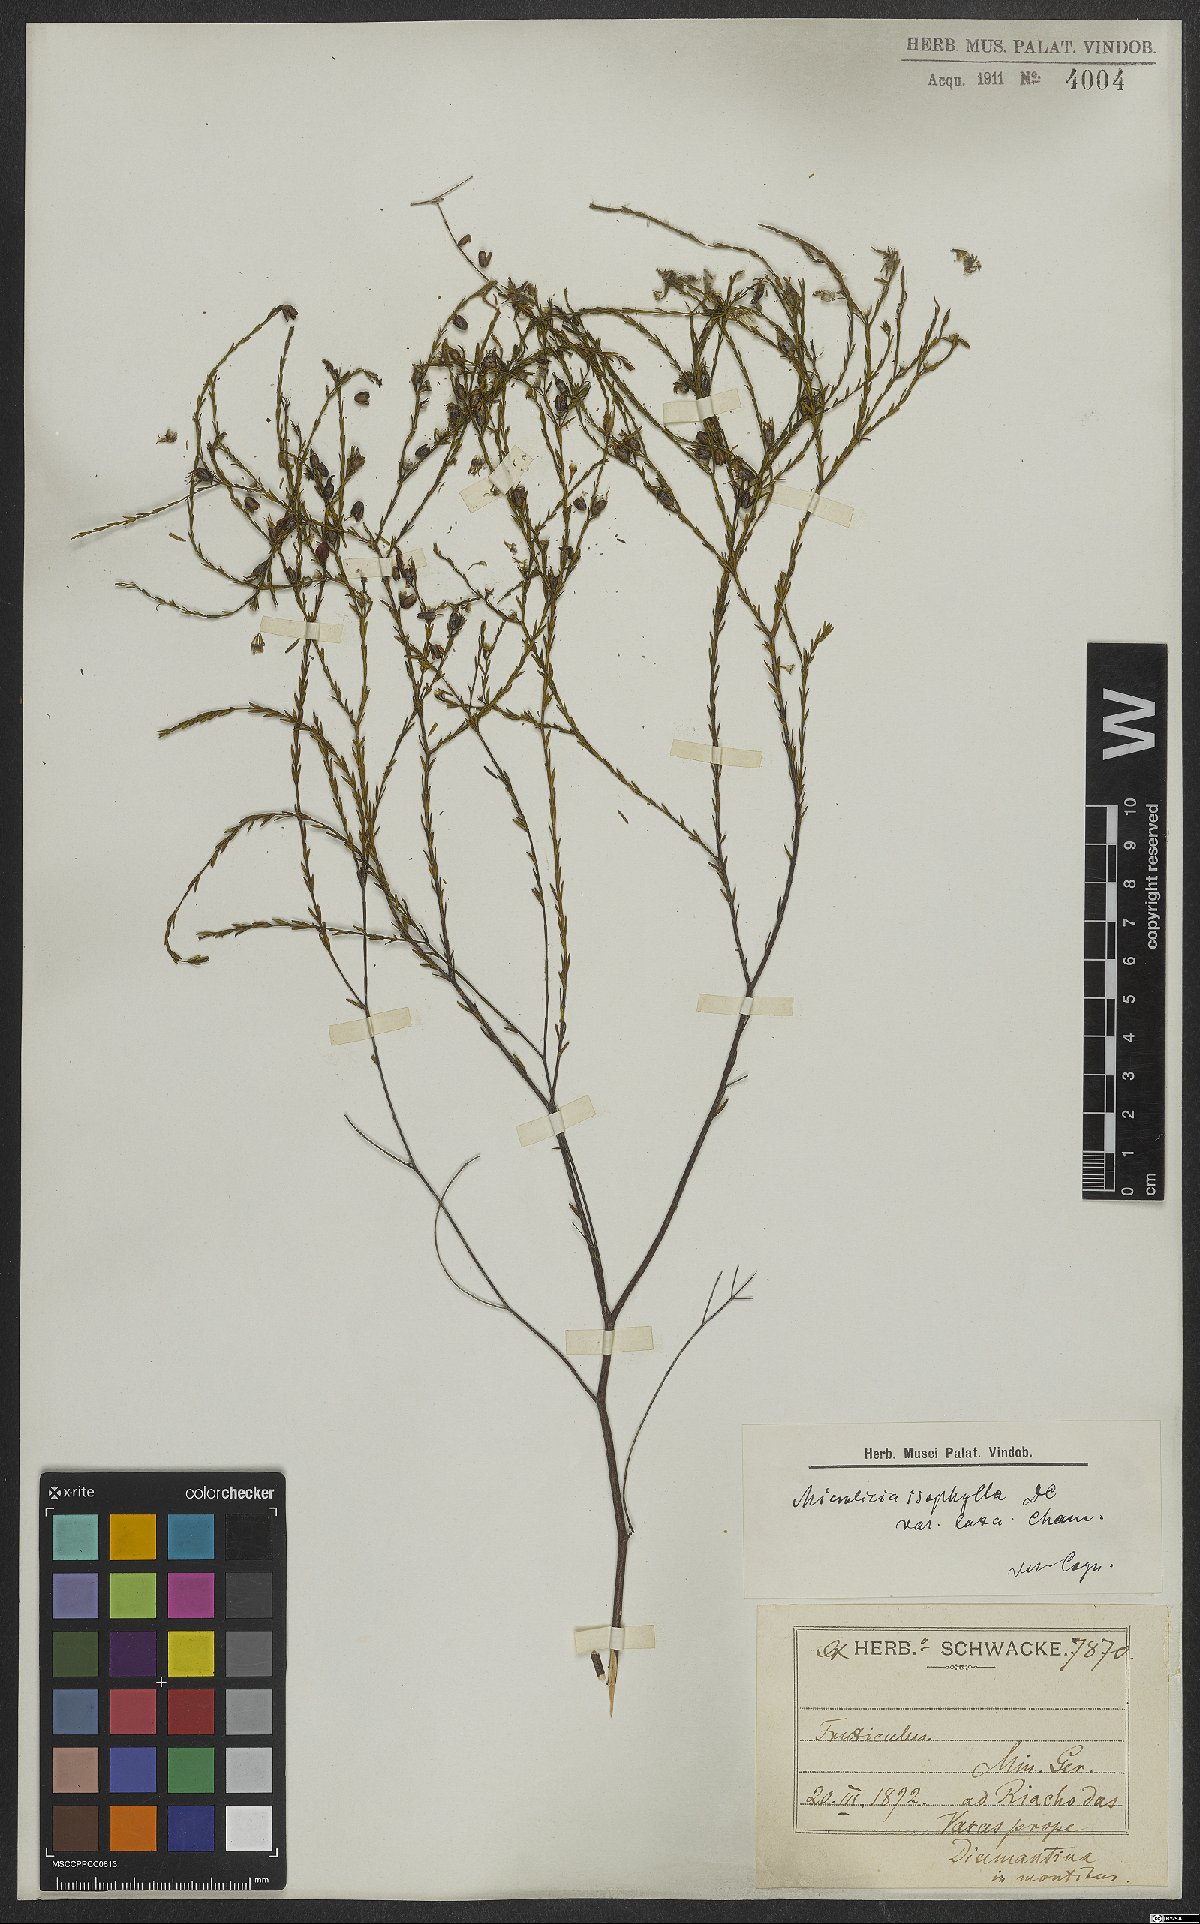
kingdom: Plantae
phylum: Tracheophyta
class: Magnoliopsida
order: Myrtales
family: Melastomataceae
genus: Microlicia
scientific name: Microlicia isophylla
